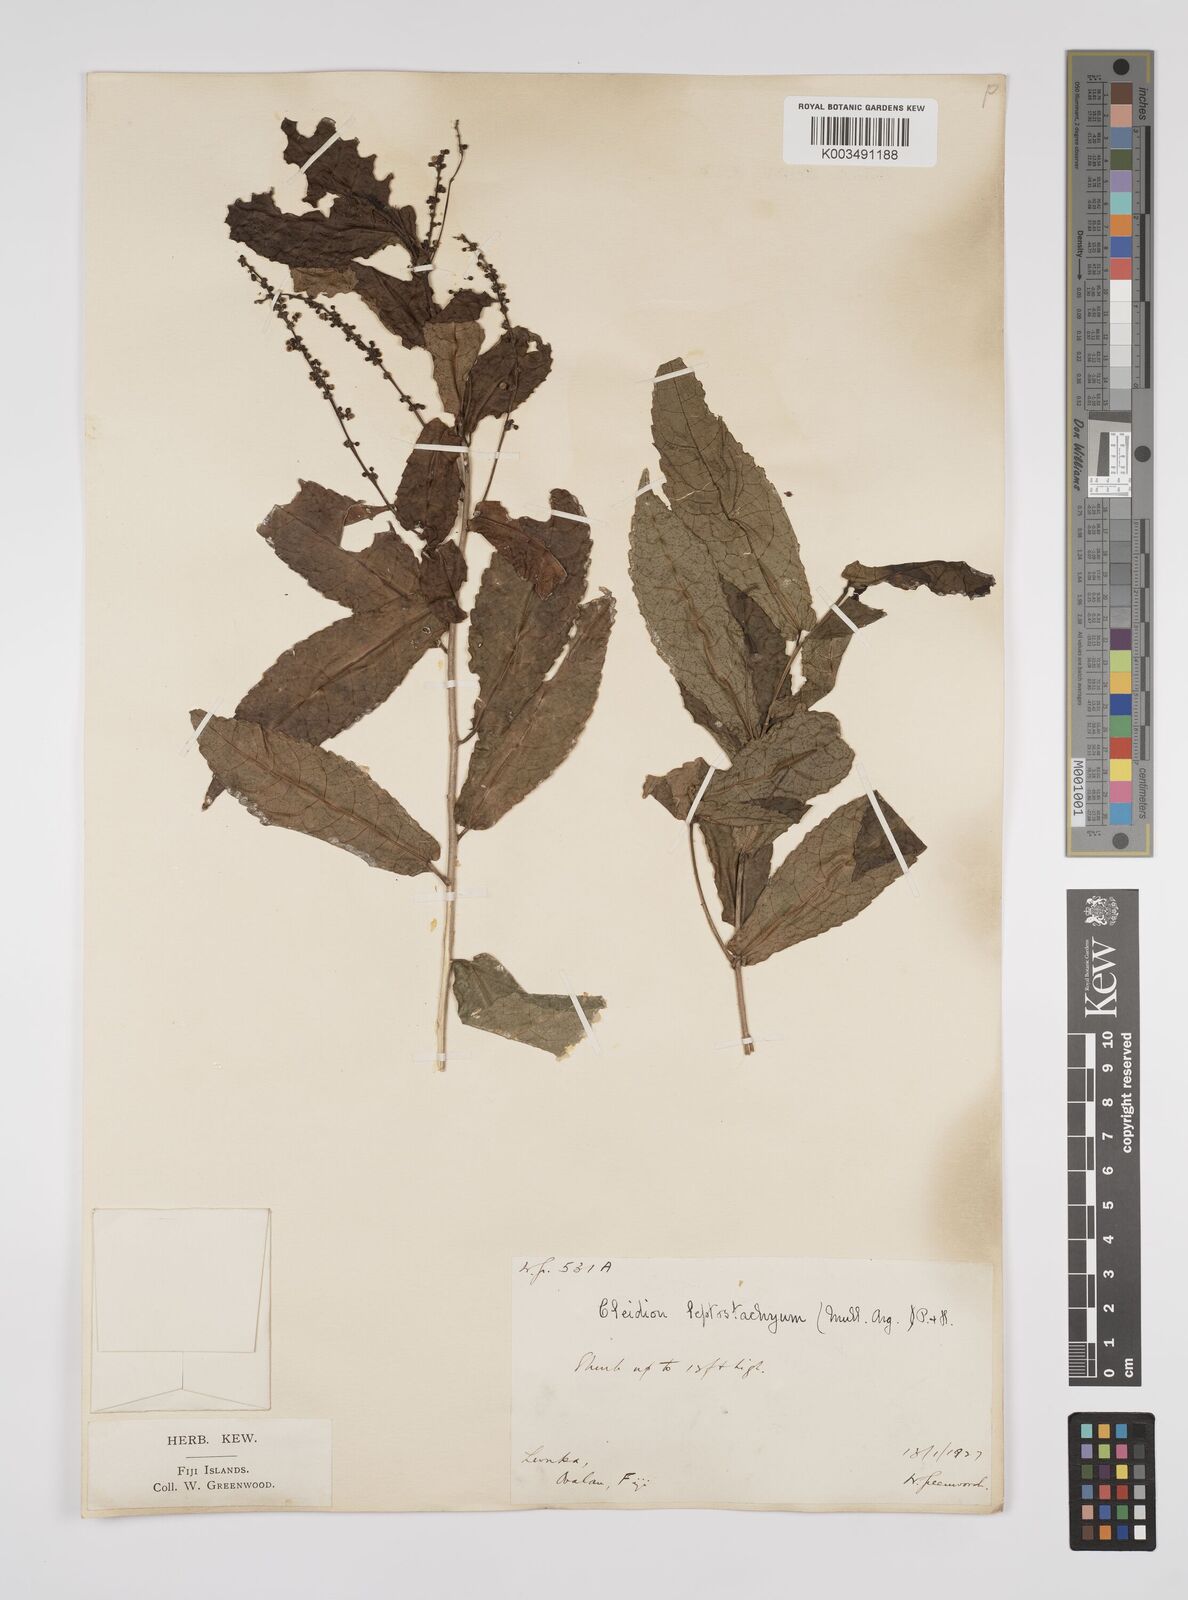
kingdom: Plantae
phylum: Tracheophyta
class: Magnoliopsida
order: Malpighiales
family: Euphorbiaceae
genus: Cleidion
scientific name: Cleidion leptostachyum
